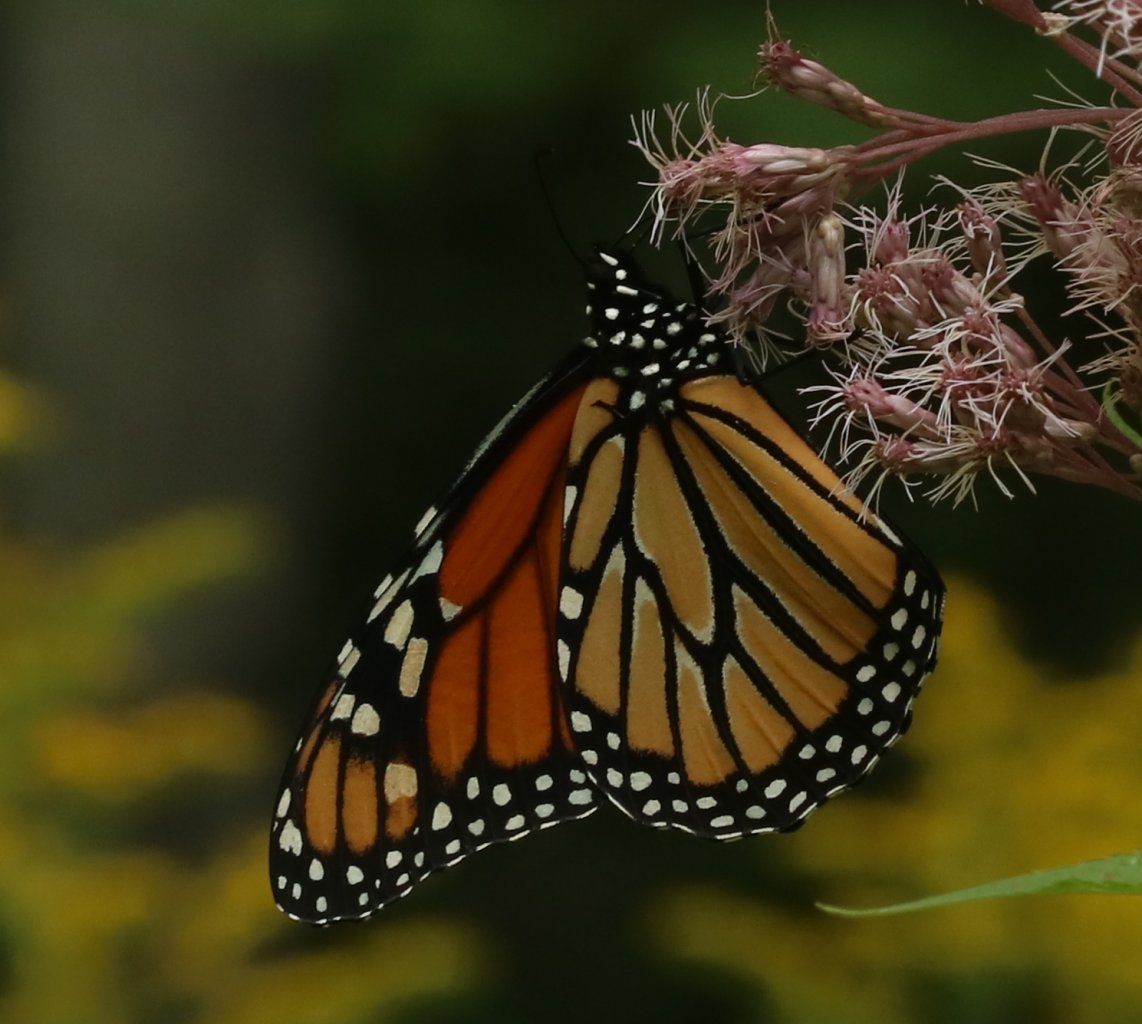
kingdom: Animalia
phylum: Arthropoda
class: Insecta
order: Lepidoptera
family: Nymphalidae
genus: Danaus
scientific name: Danaus plexippus
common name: Monarch
